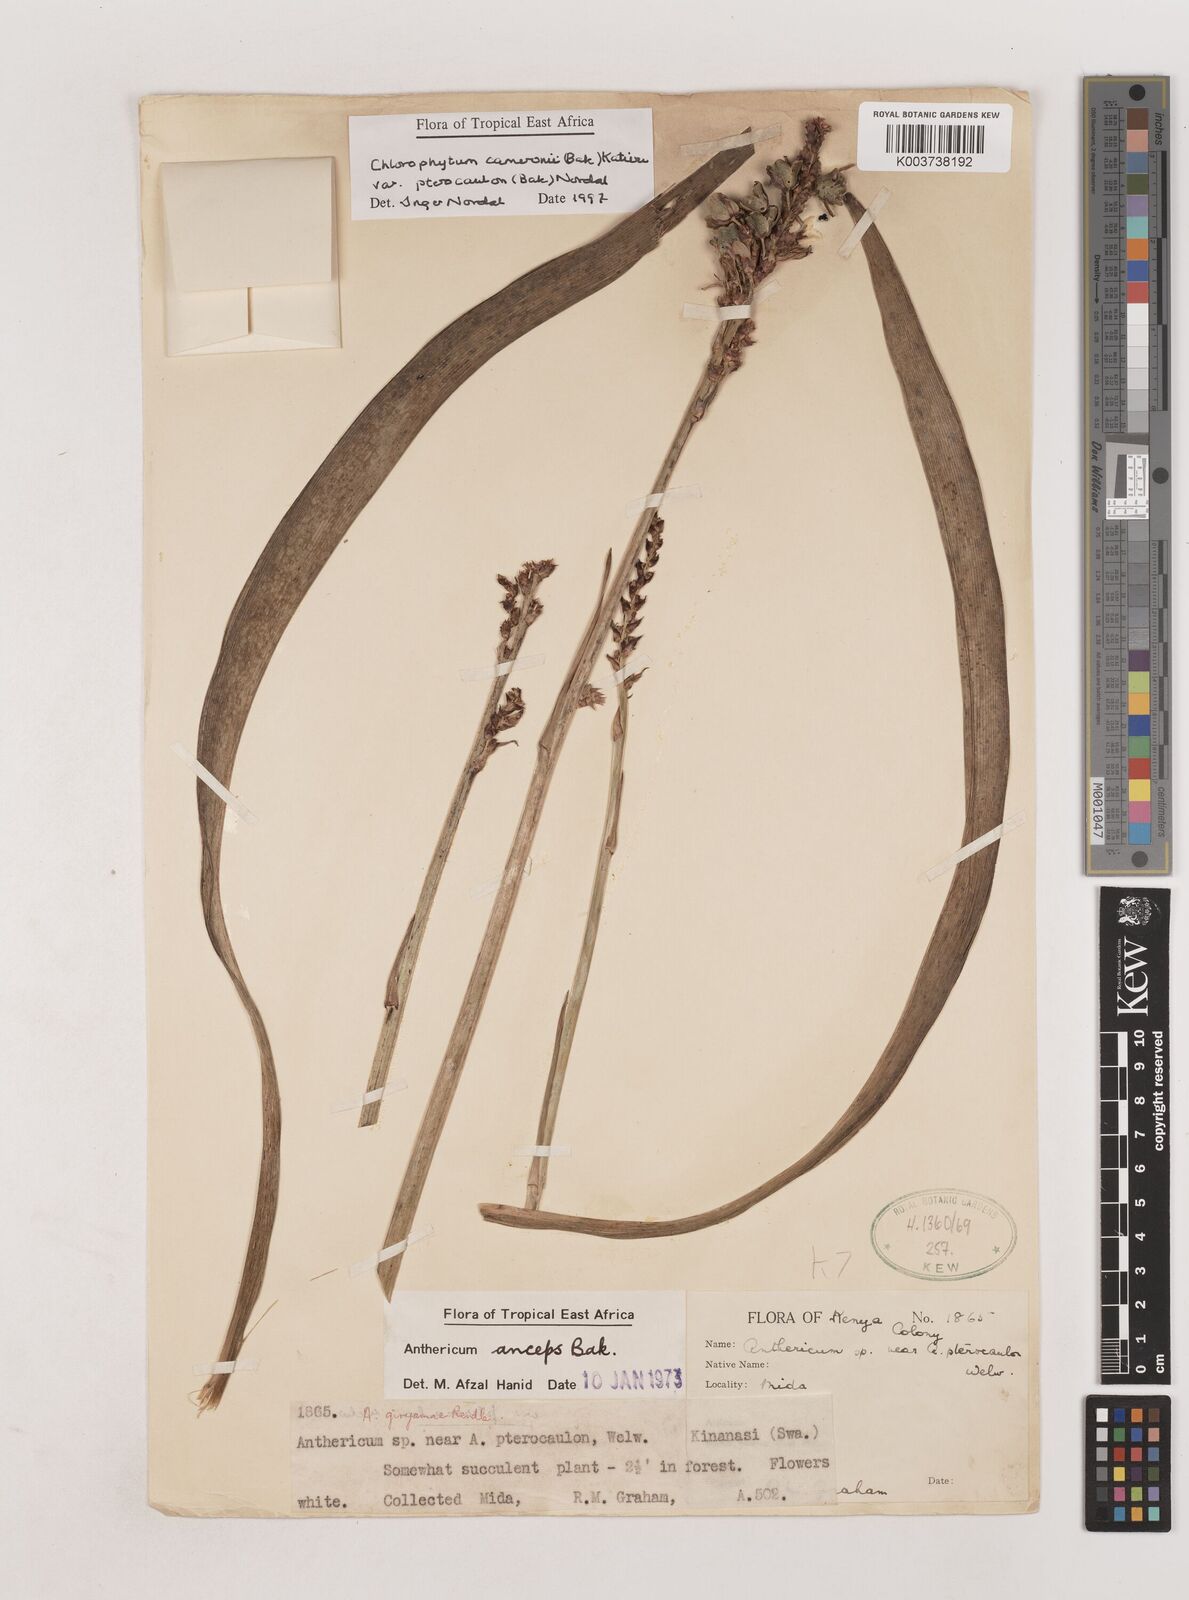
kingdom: Plantae
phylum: Tracheophyta
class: Liliopsida
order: Asparagales
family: Asparagaceae
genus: Chlorophytum
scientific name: Chlorophytum cameronii
